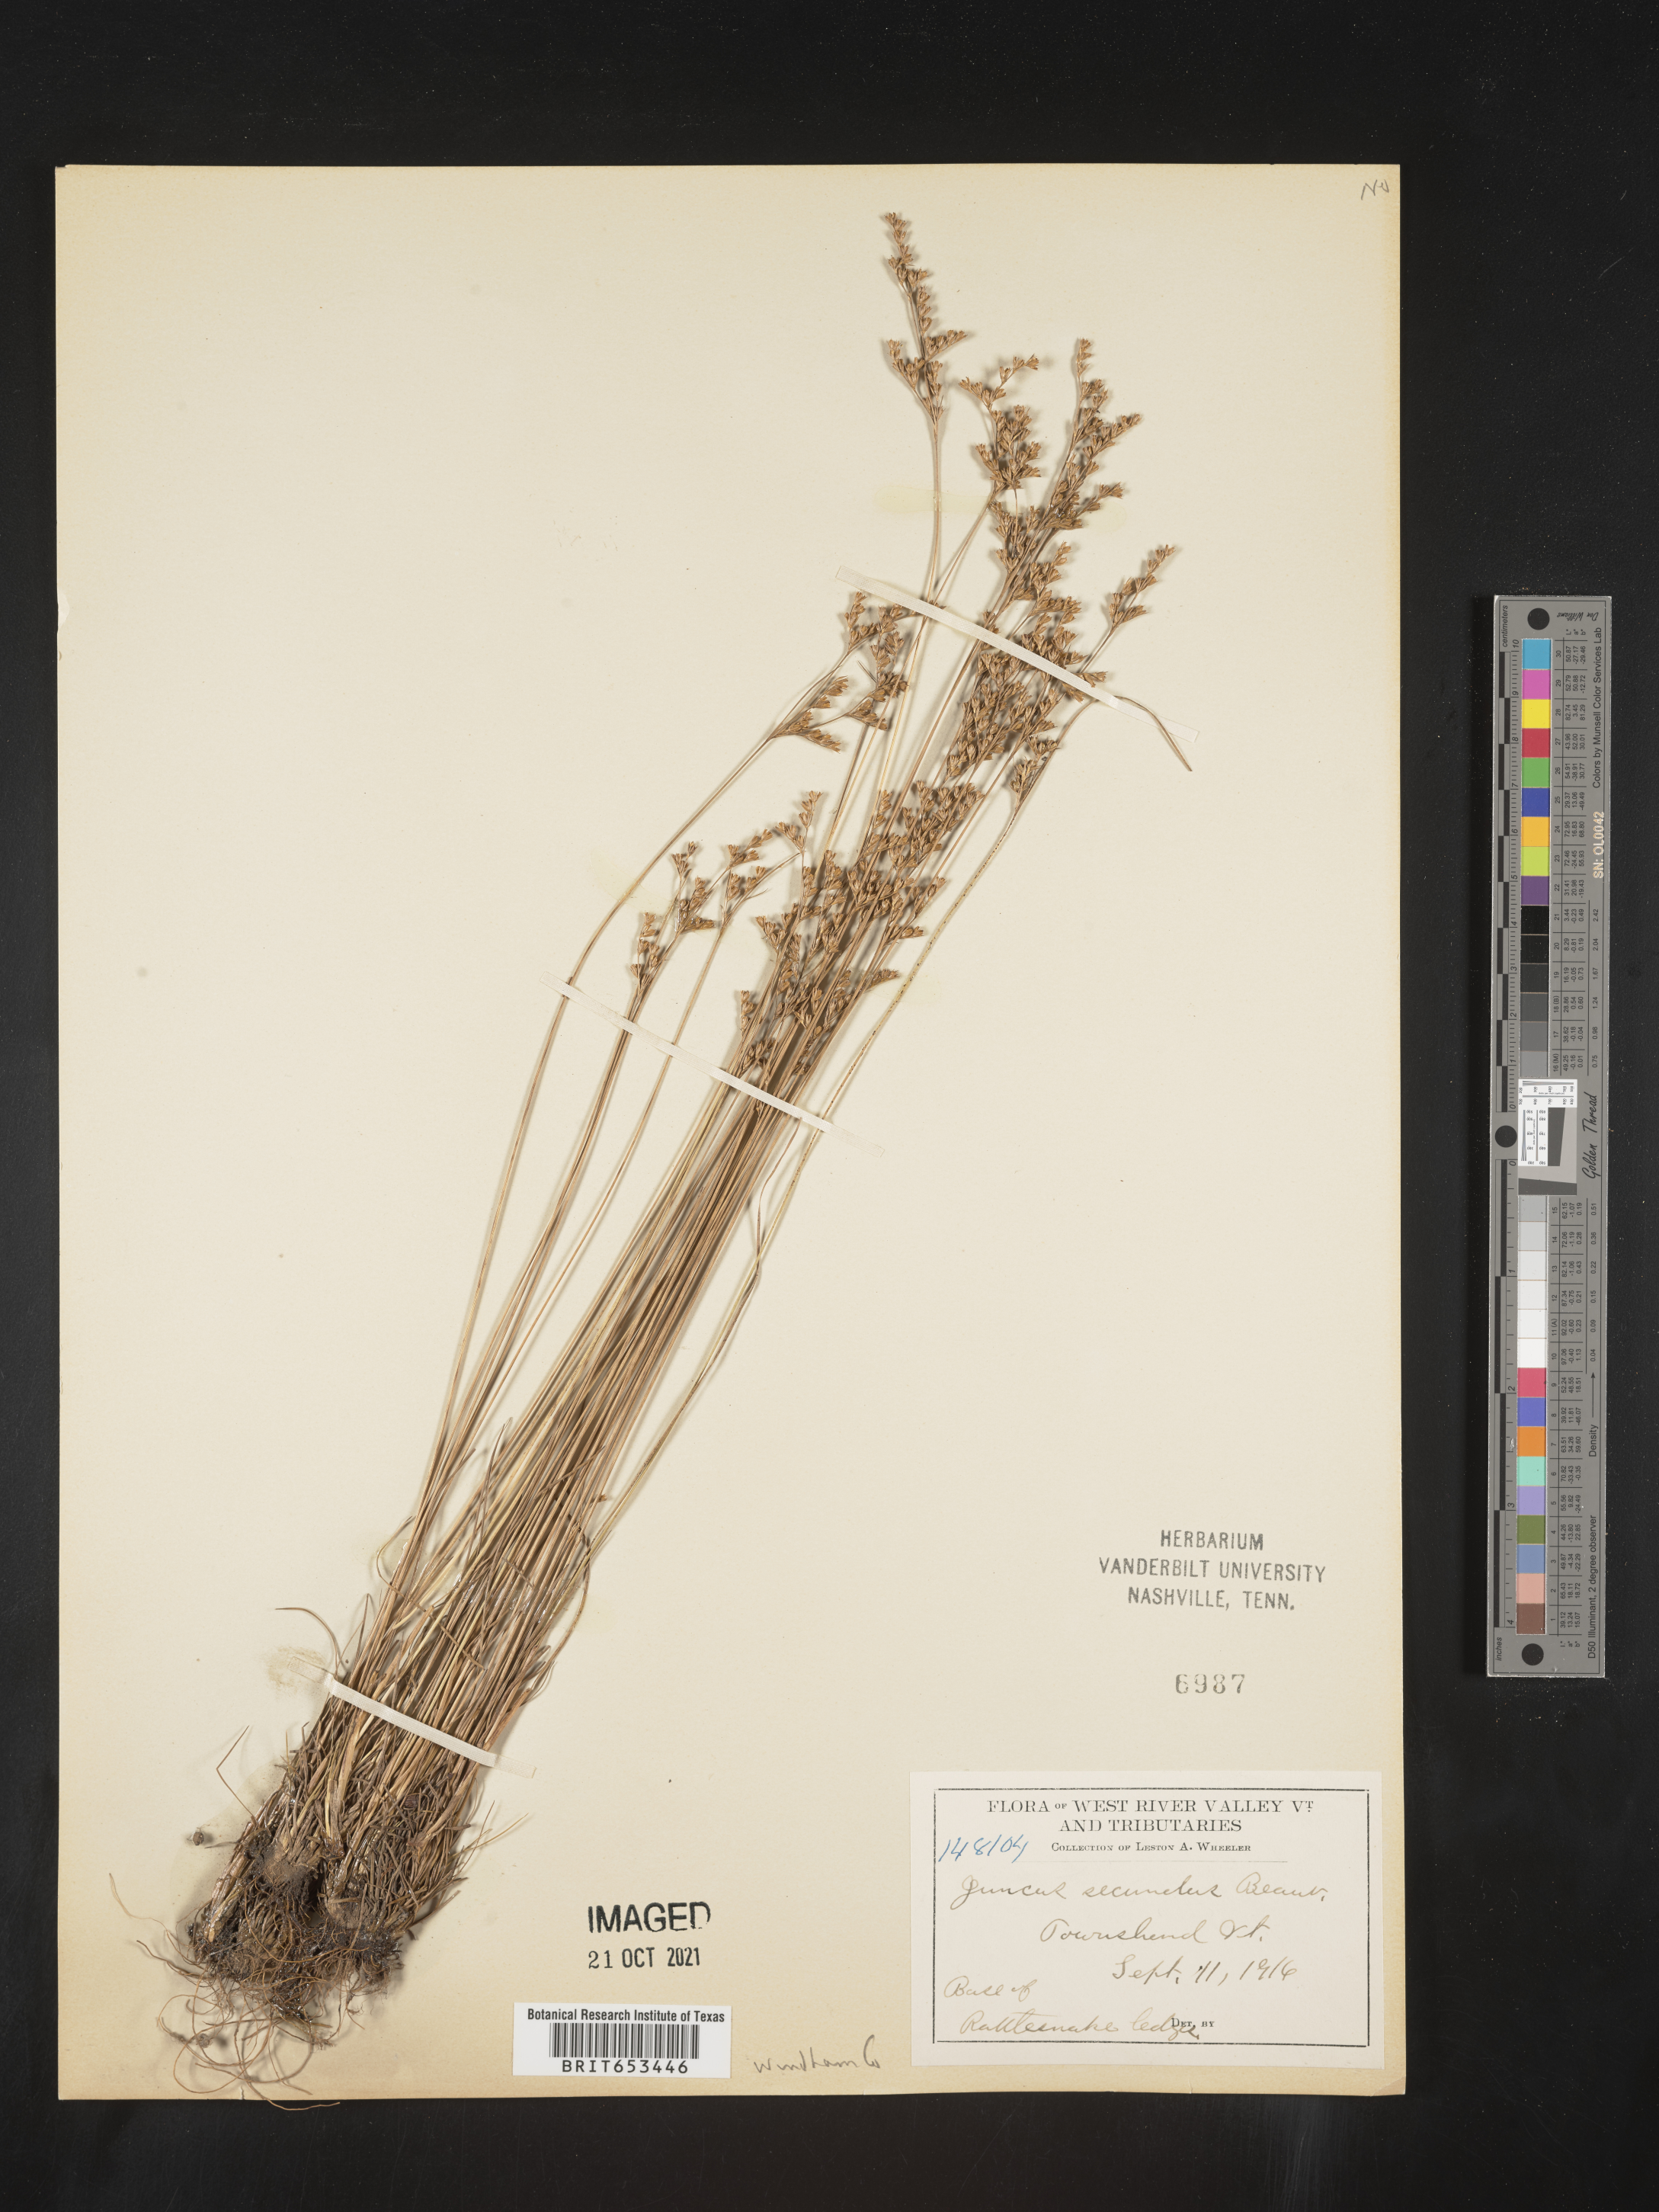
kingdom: Plantae
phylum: Tracheophyta
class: Liliopsida
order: Poales
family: Juncaceae
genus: Juncus
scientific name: Juncus secundus
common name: Lopsided rush
